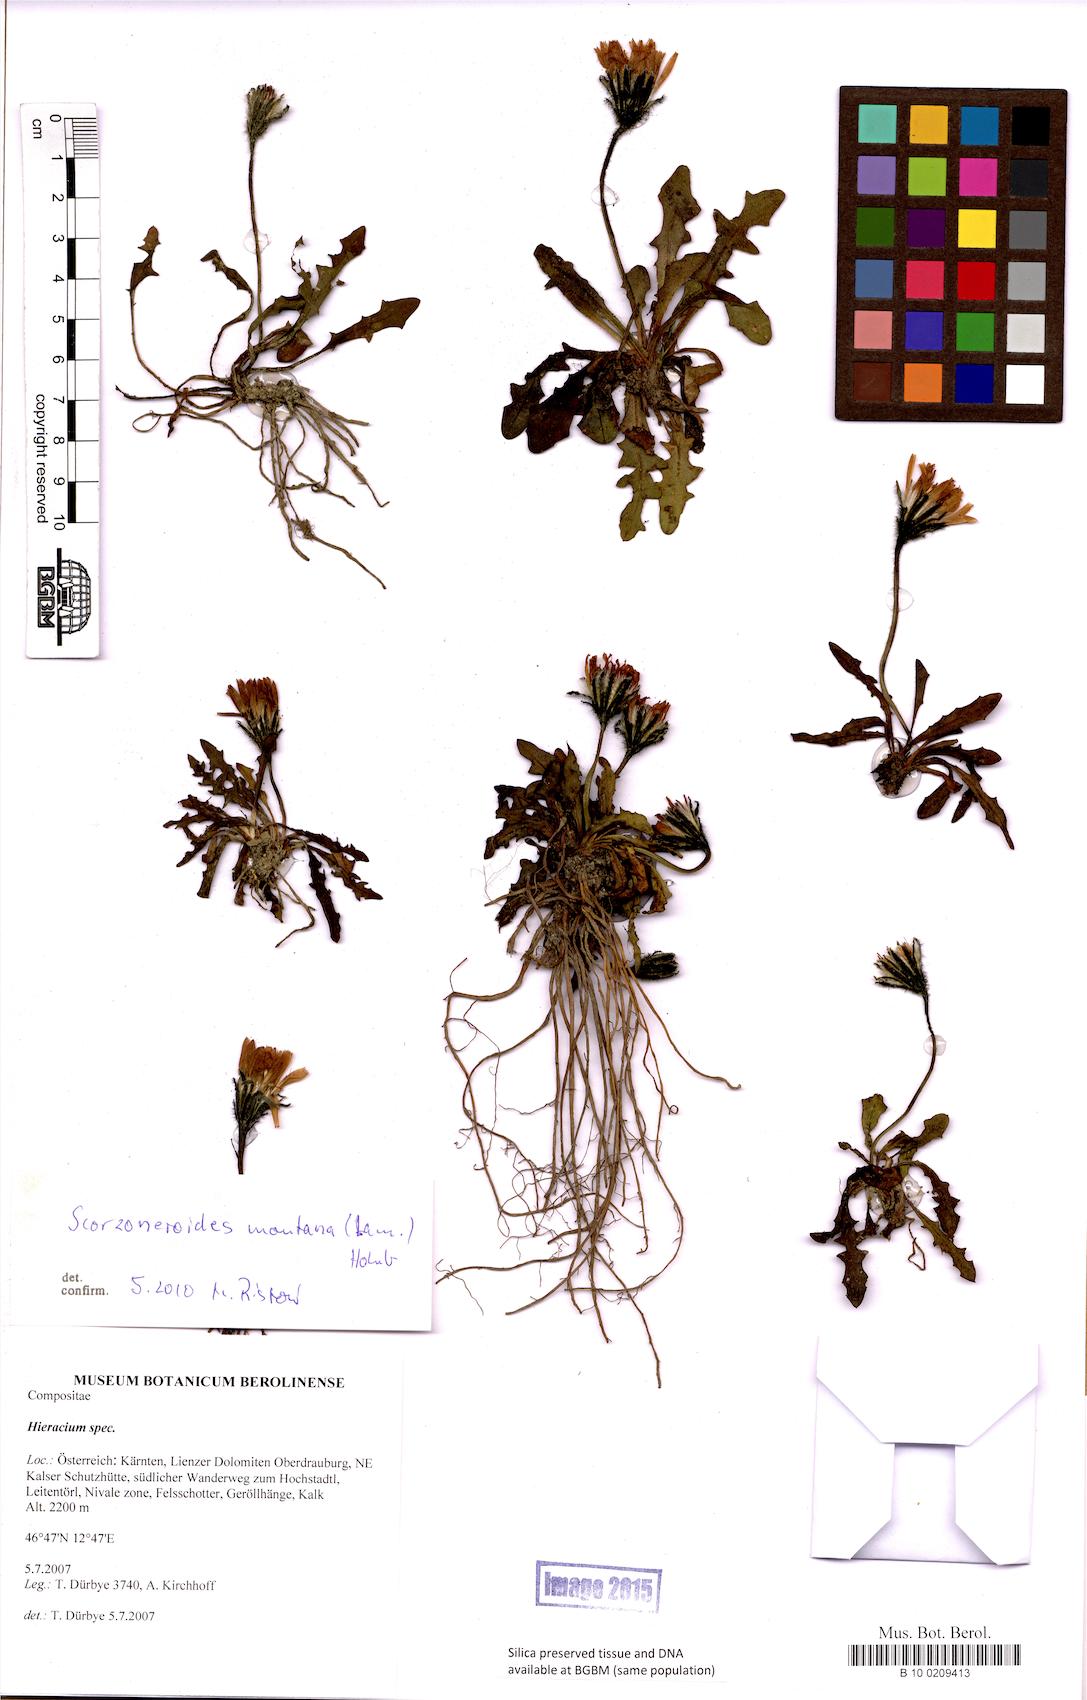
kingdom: Plantae
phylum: Tracheophyta
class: Magnoliopsida
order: Asterales
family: Asteraceae
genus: Hieracium
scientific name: Hieracium
